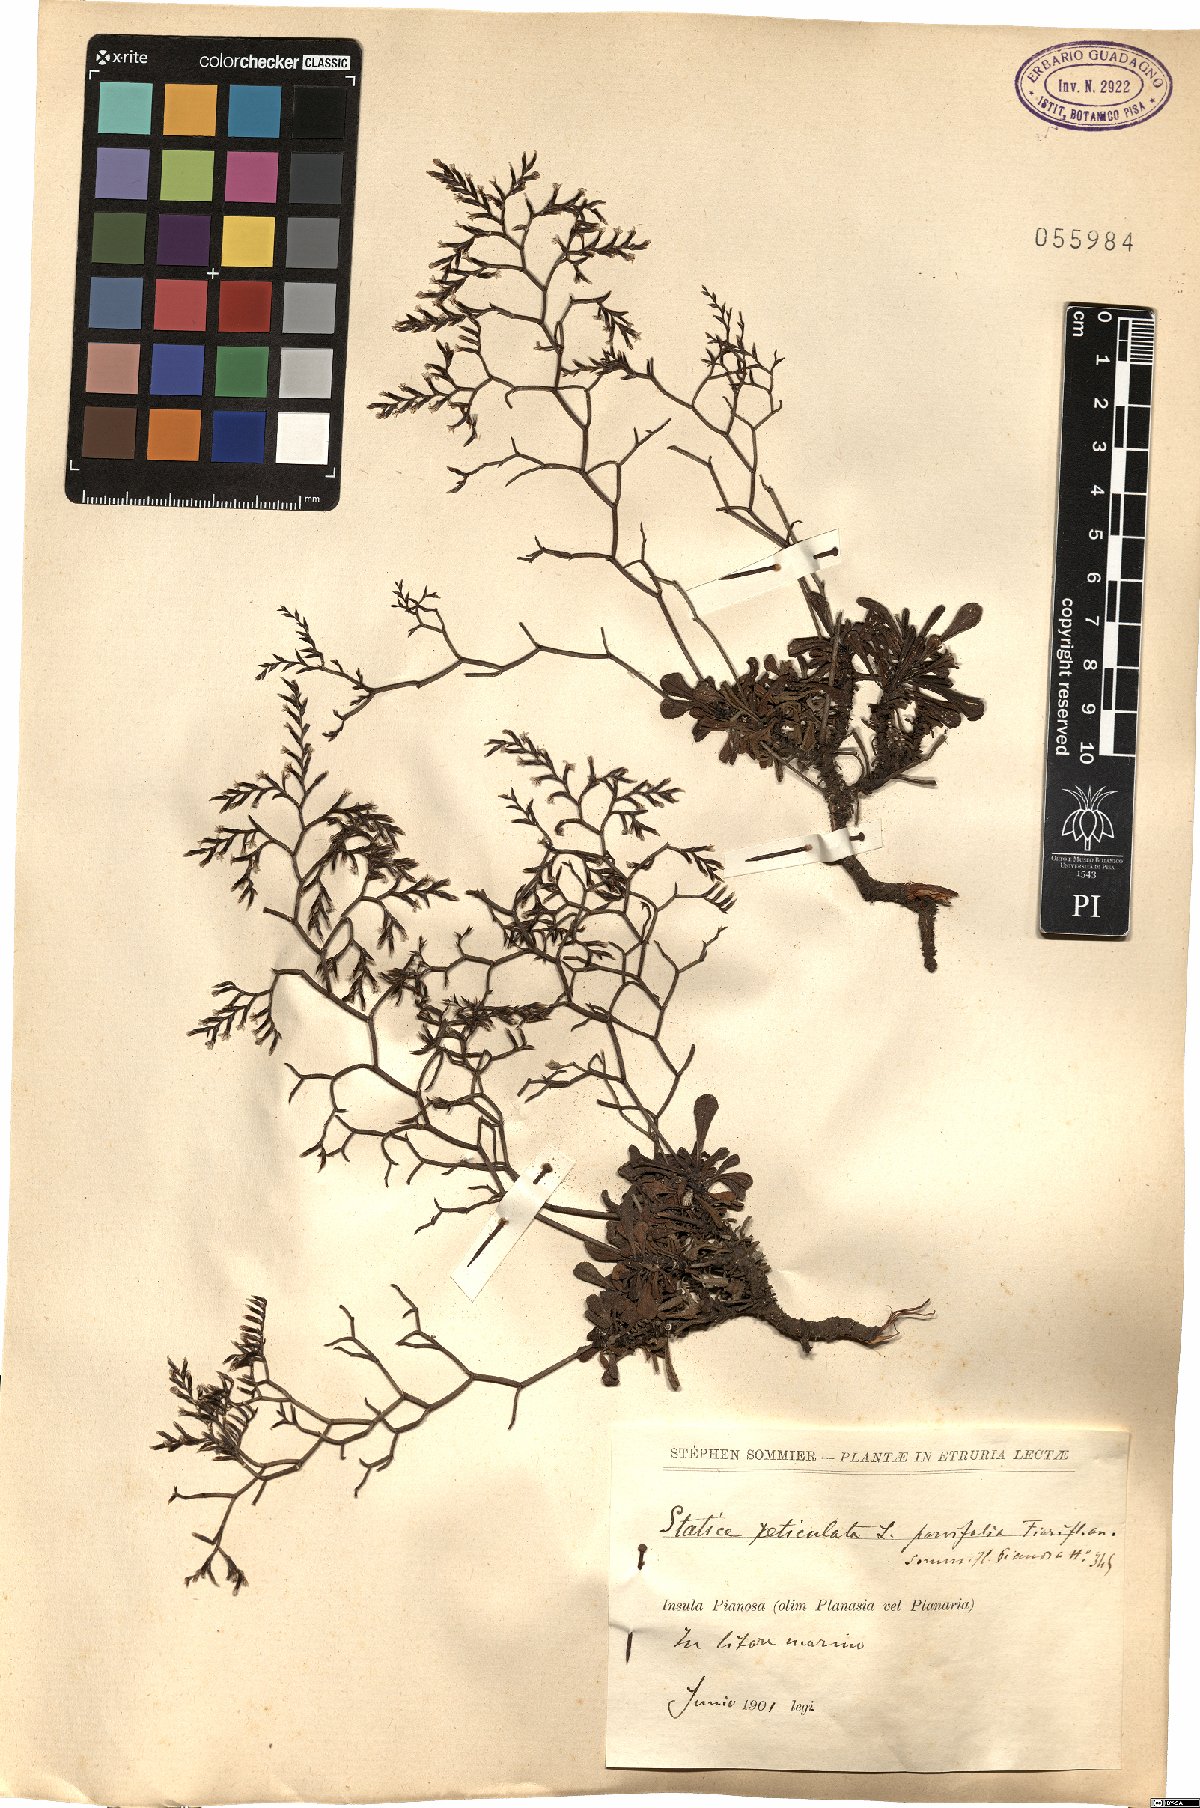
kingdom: Plantae
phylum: Tracheophyta
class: Magnoliopsida
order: Caryophyllales
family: Plumbaginaceae
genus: Limonium
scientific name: Limonium
